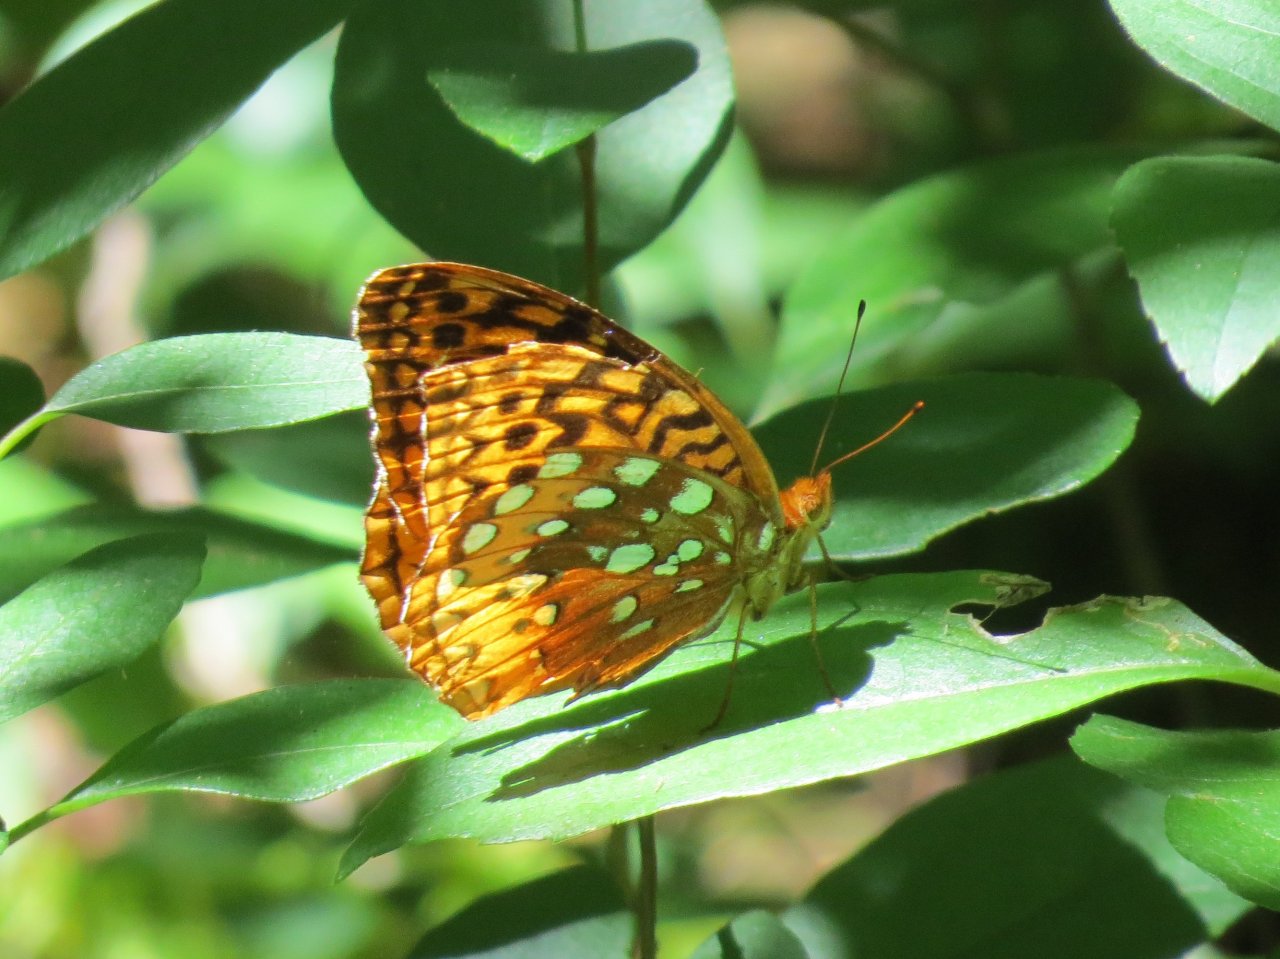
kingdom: Animalia
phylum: Arthropoda
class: Insecta
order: Lepidoptera
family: Nymphalidae
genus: Speyeria
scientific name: Speyeria cybele
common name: Great Spangled Fritillary
